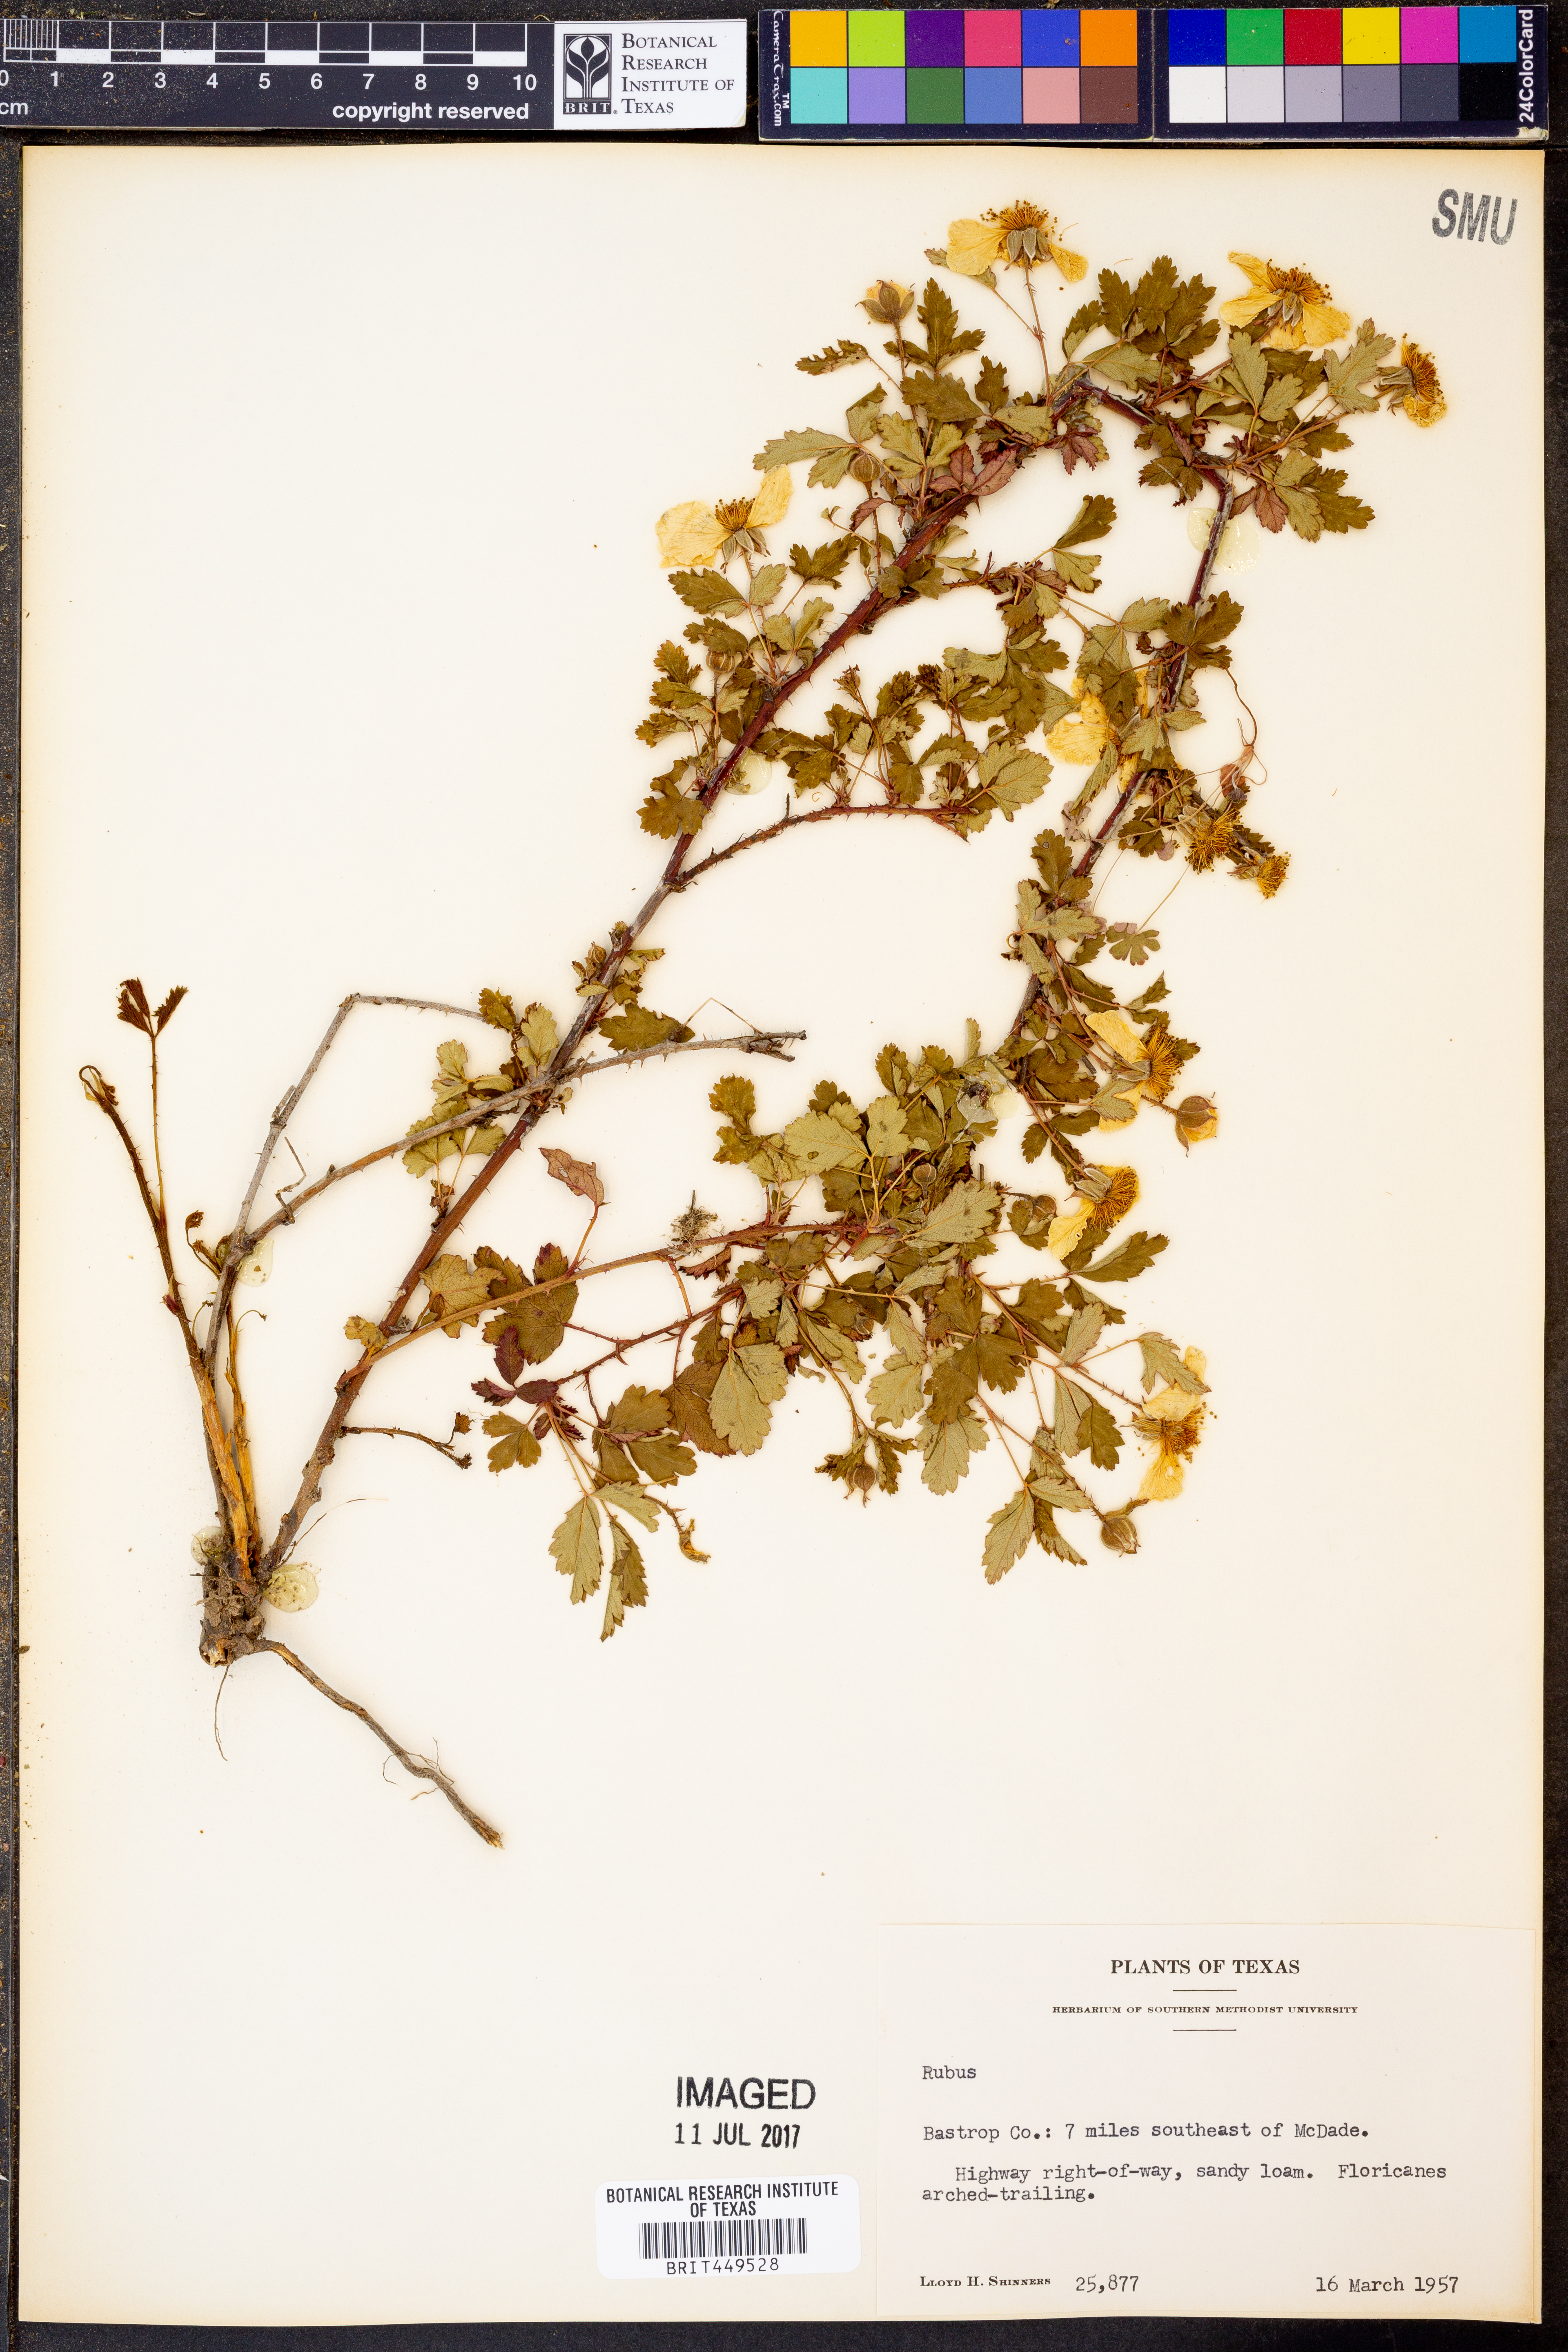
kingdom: Plantae
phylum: Tracheophyta
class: Magnoliopsida
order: Rosales
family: Rosaceae
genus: Rubus
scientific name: Rubus
